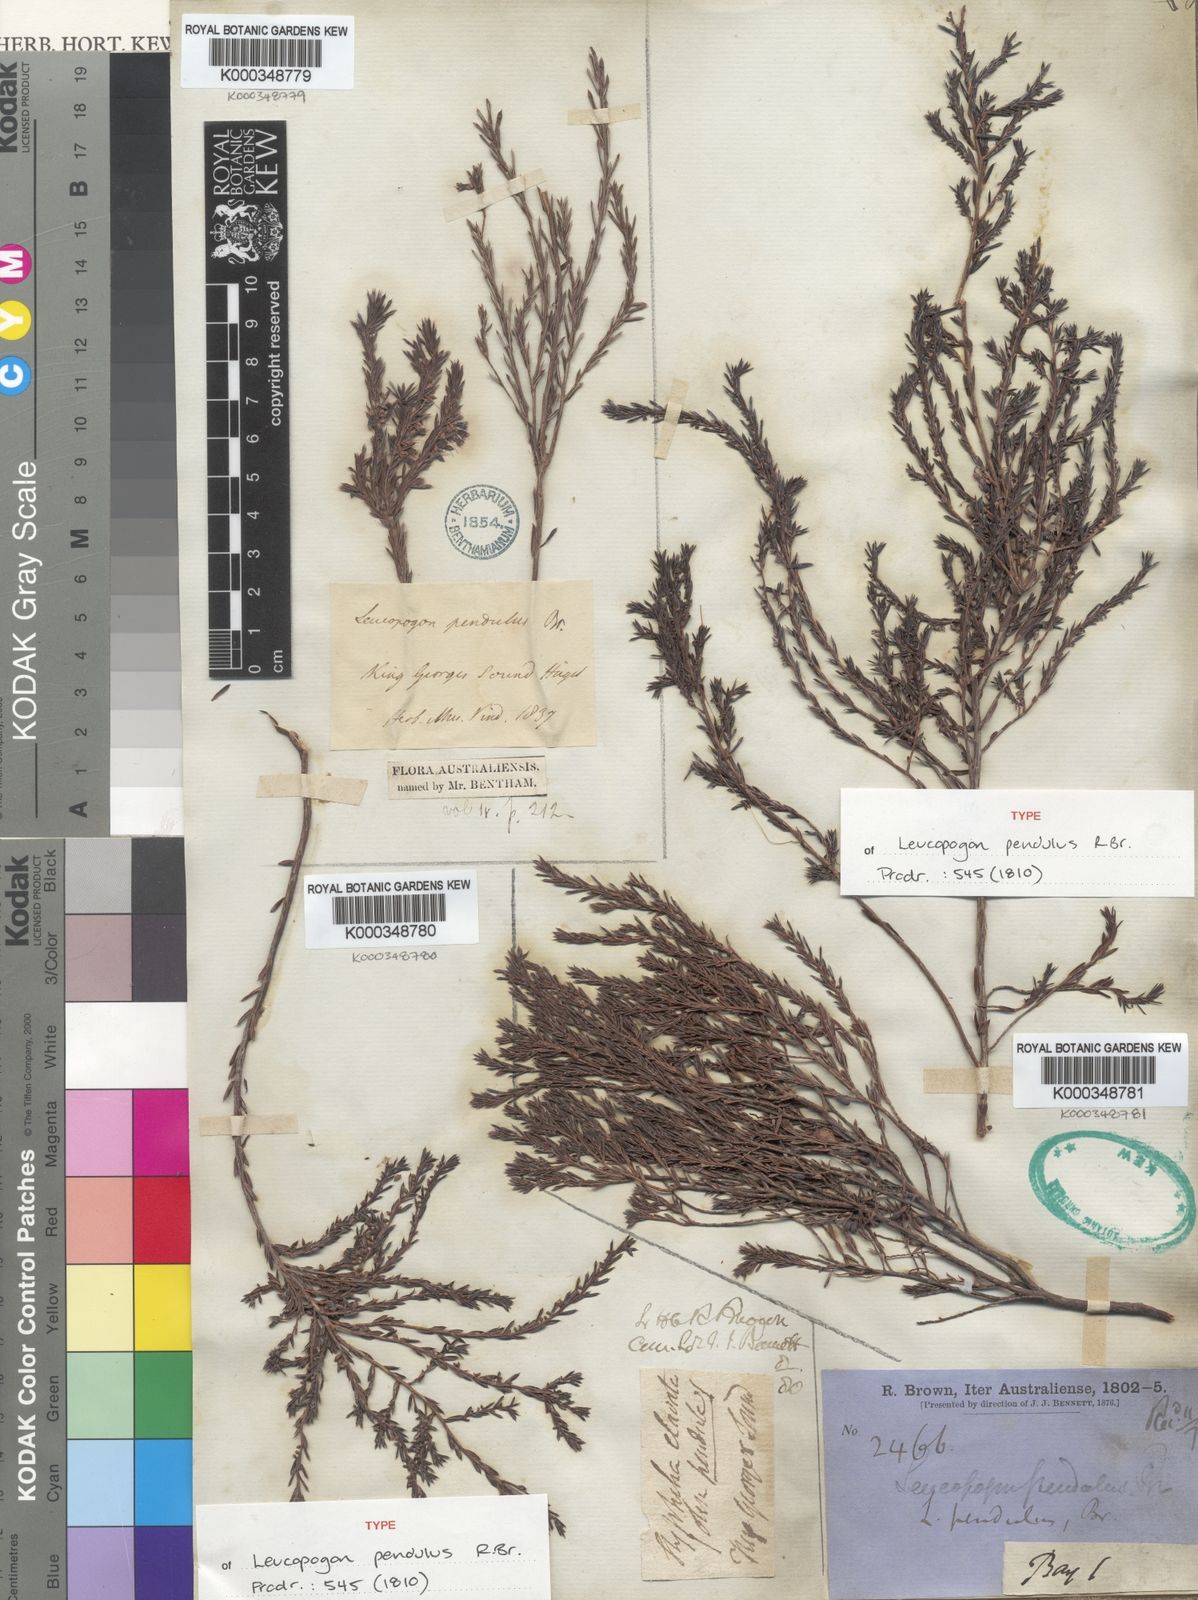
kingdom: Plantae
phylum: Tracheophyta
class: Magnoliopsida
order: Ericales
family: Ericaceae
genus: Styphelia
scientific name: Styphelia pendula
